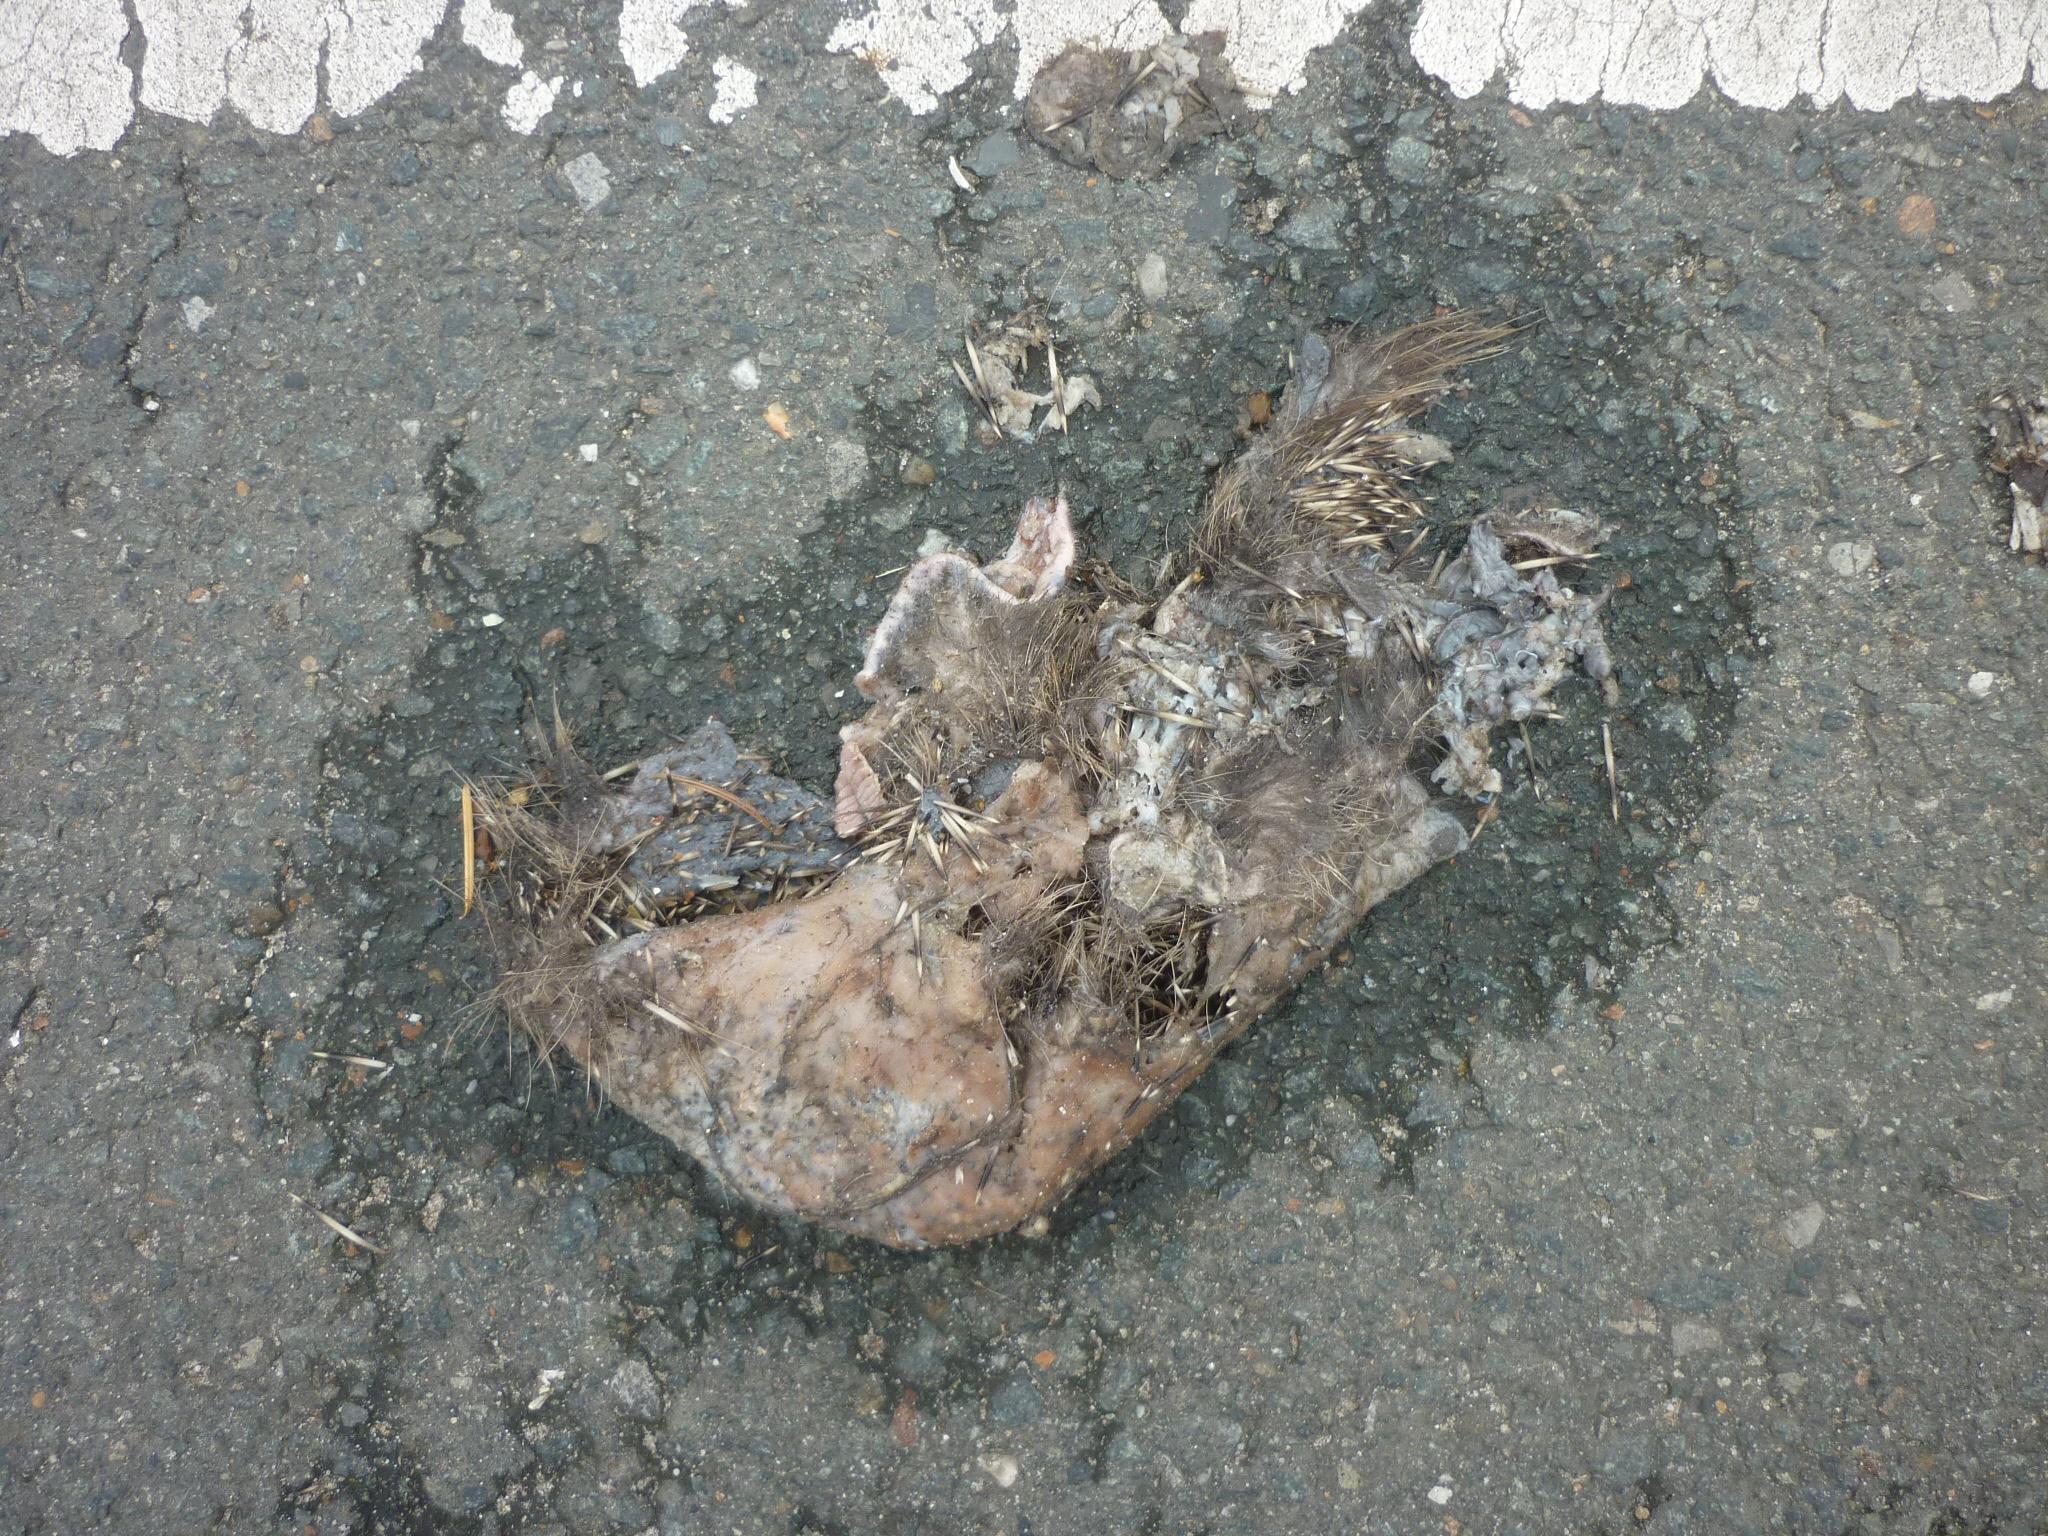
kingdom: Animalia
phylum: Chordata
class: Mammalia
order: Erinaceomorpha
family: Erinaceidae
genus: Erinaceus
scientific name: Erinaceus
